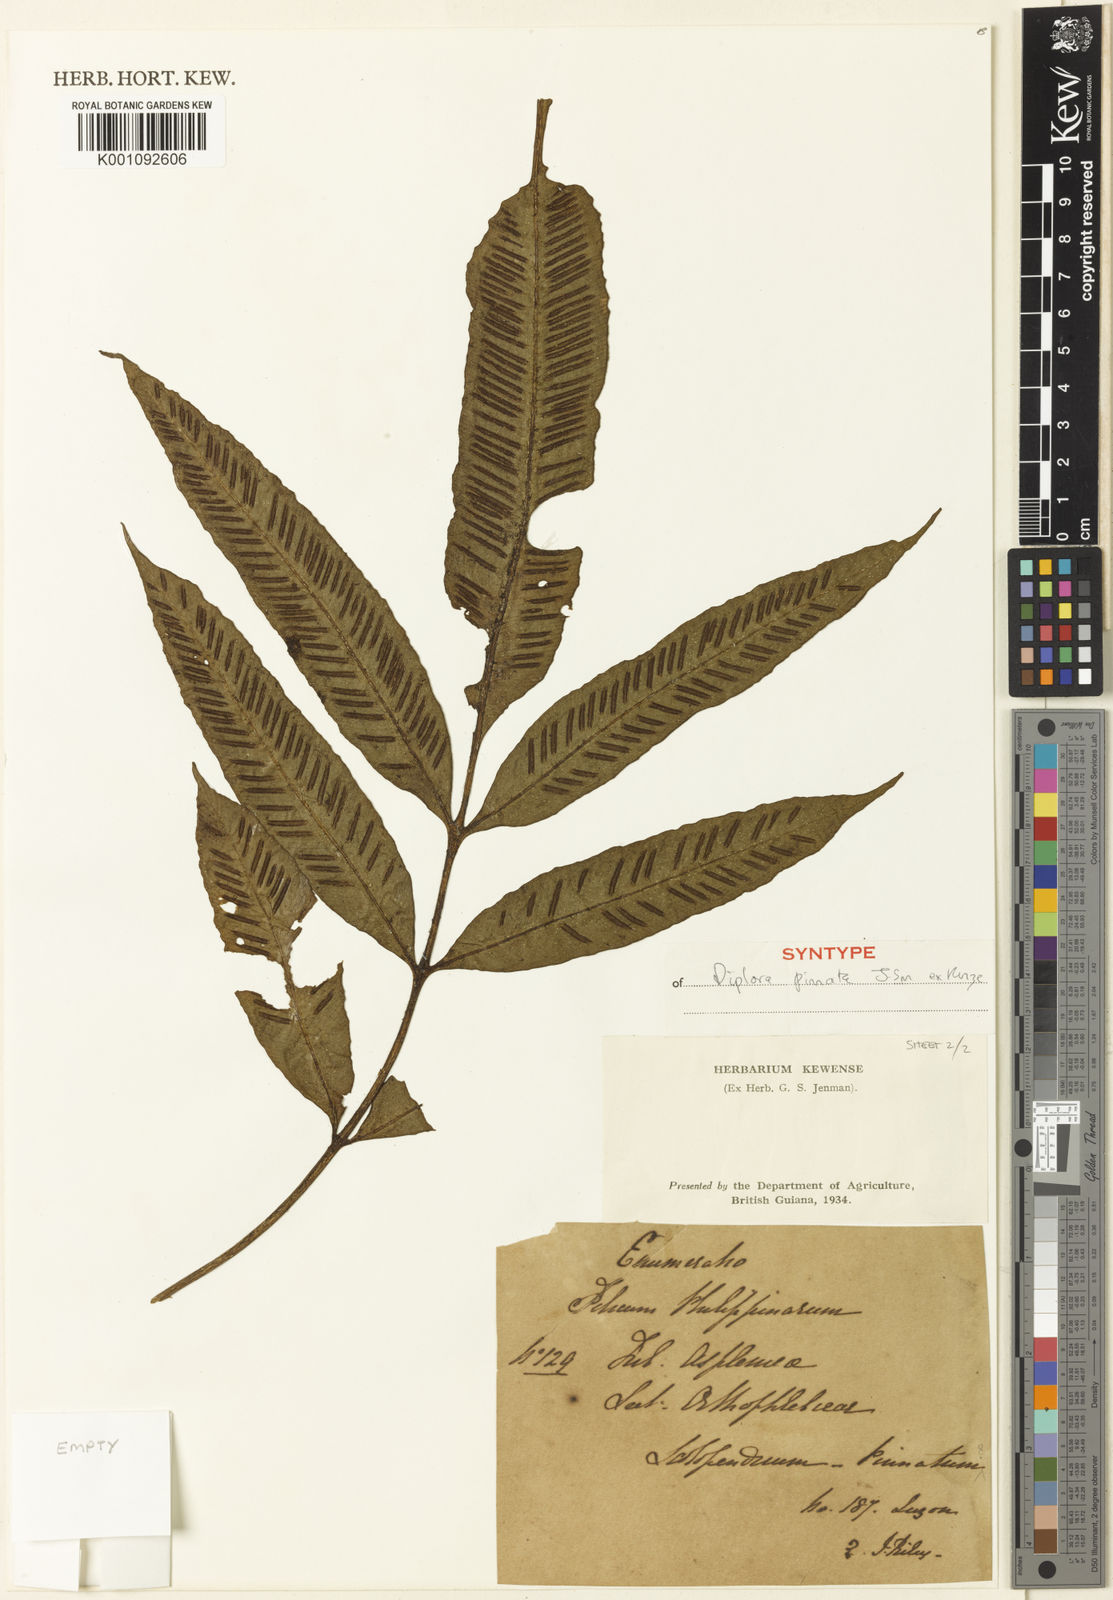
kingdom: Plantae
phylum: Tracheophyta
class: Polypodiopsida
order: Polypodiales
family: Aspleniaceae
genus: Asplenium
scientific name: Asplenium
